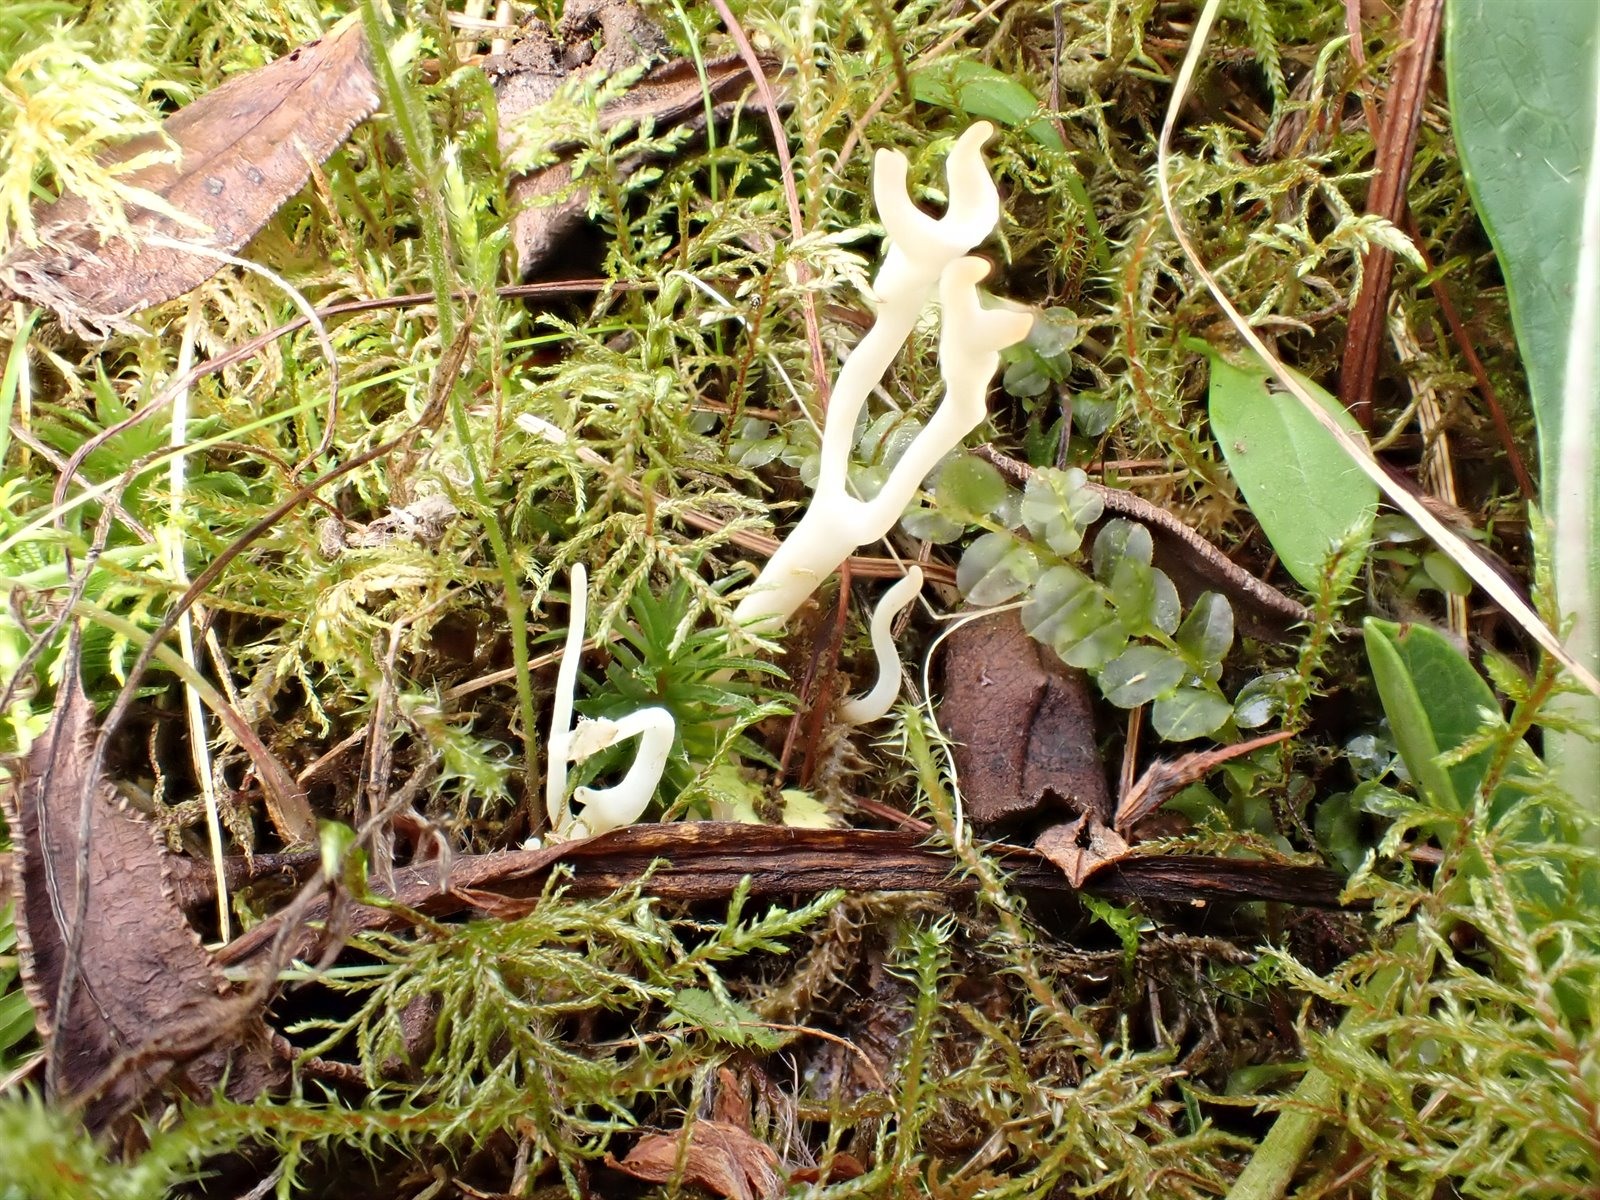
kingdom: Fungi
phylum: Basidiomycota
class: Agaricomycetes
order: Agaricales
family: Clavariaceae
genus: Ramariopsis
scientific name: Ramariopsis
